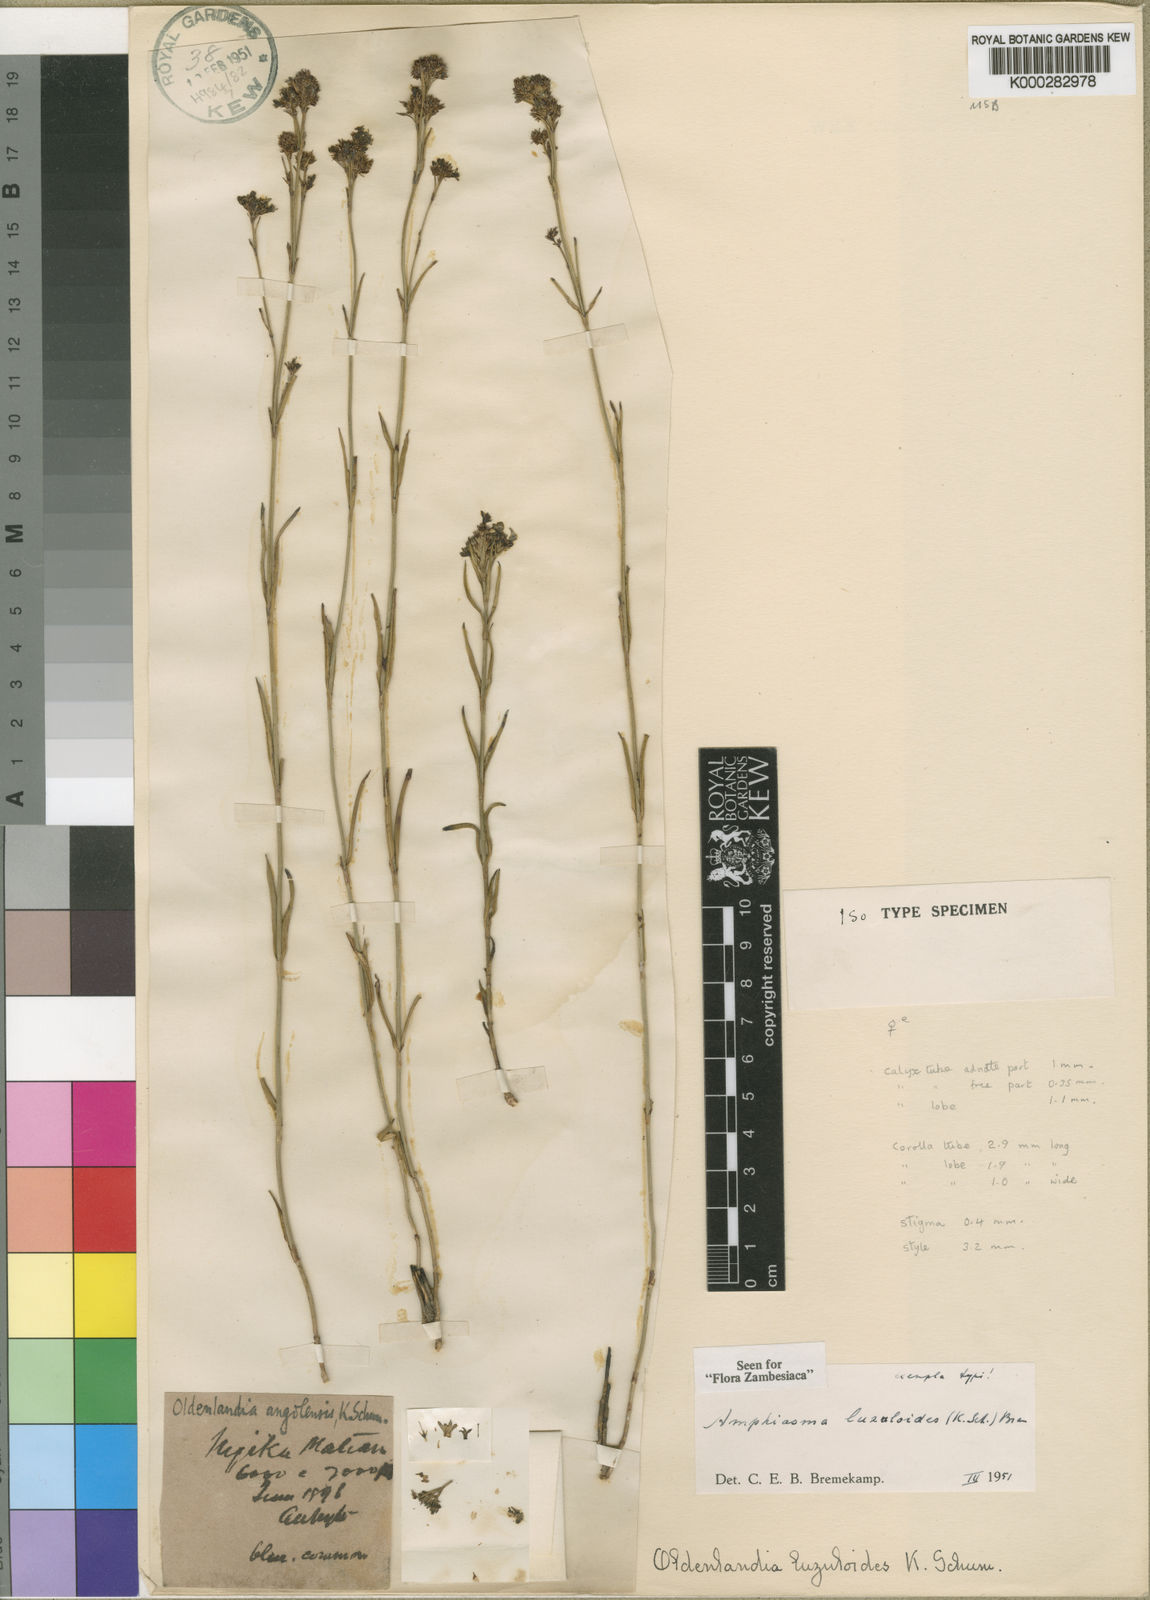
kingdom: Plantae
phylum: Tracheophyta
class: Magnoliopsida
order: Gentianales
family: Rubiaceae
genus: Amphiasma
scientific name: Amphiasma luzuloides
